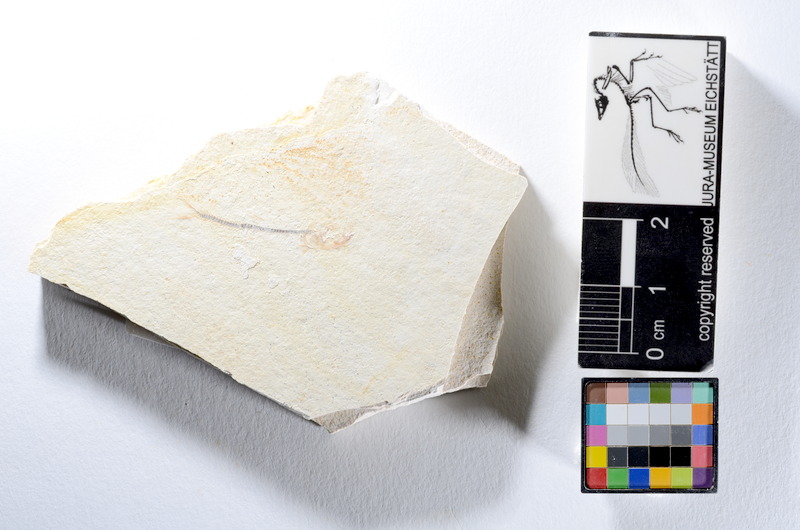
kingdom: Animalia
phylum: Chordata
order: Salmoniformes
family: Orthogonikleithridae
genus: Orthogonikleithrus
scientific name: Orthogonikleithrus hoelli
